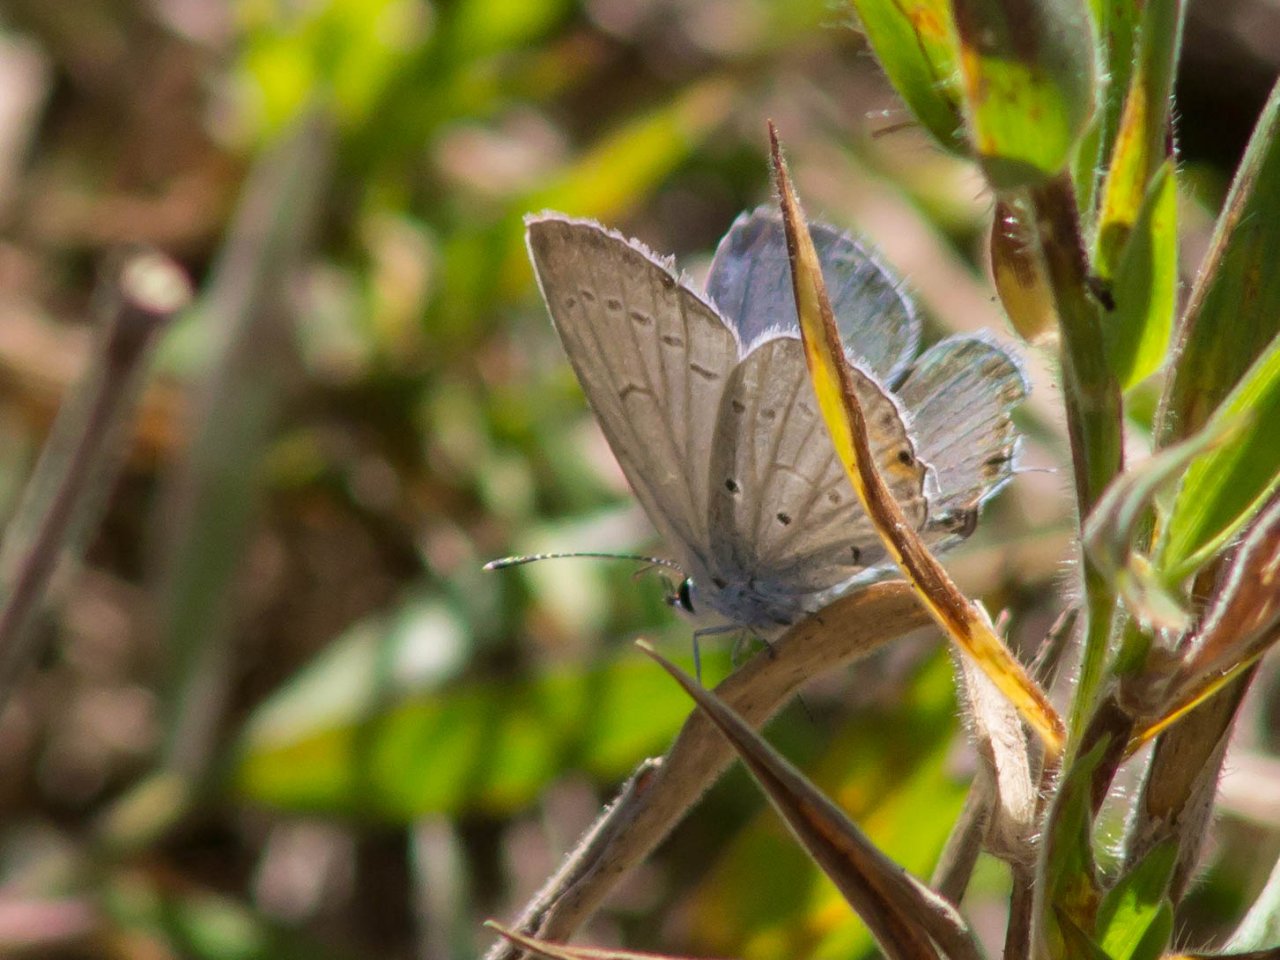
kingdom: Animalia
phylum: Arthropoda
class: Insecta
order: Lepidoptera
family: Lycaenidae
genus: Elkalyce
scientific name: Elkalyce comyntas
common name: Eastern Tailed-Blue
